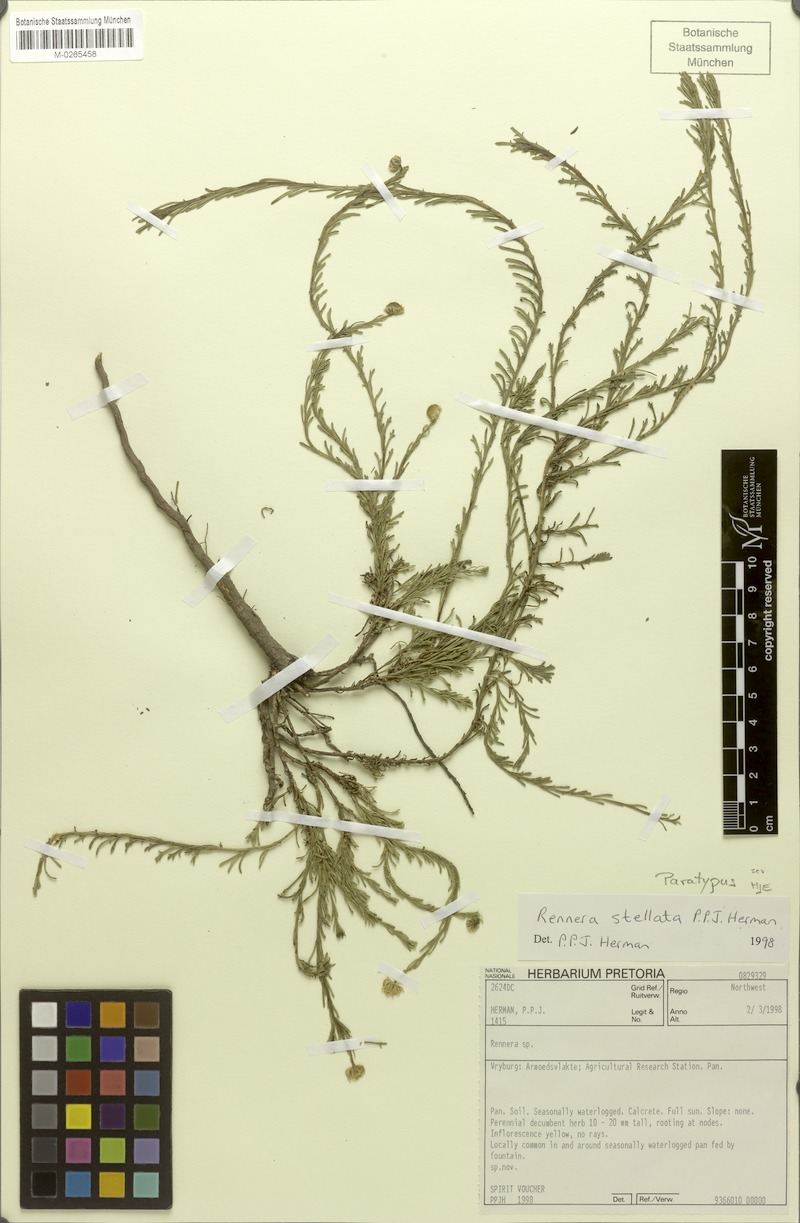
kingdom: Plantae
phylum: Tracheophyta
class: Magnoliopsida
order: Asterales
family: Asteraceae
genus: Pentzia
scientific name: Pentzia stellata
